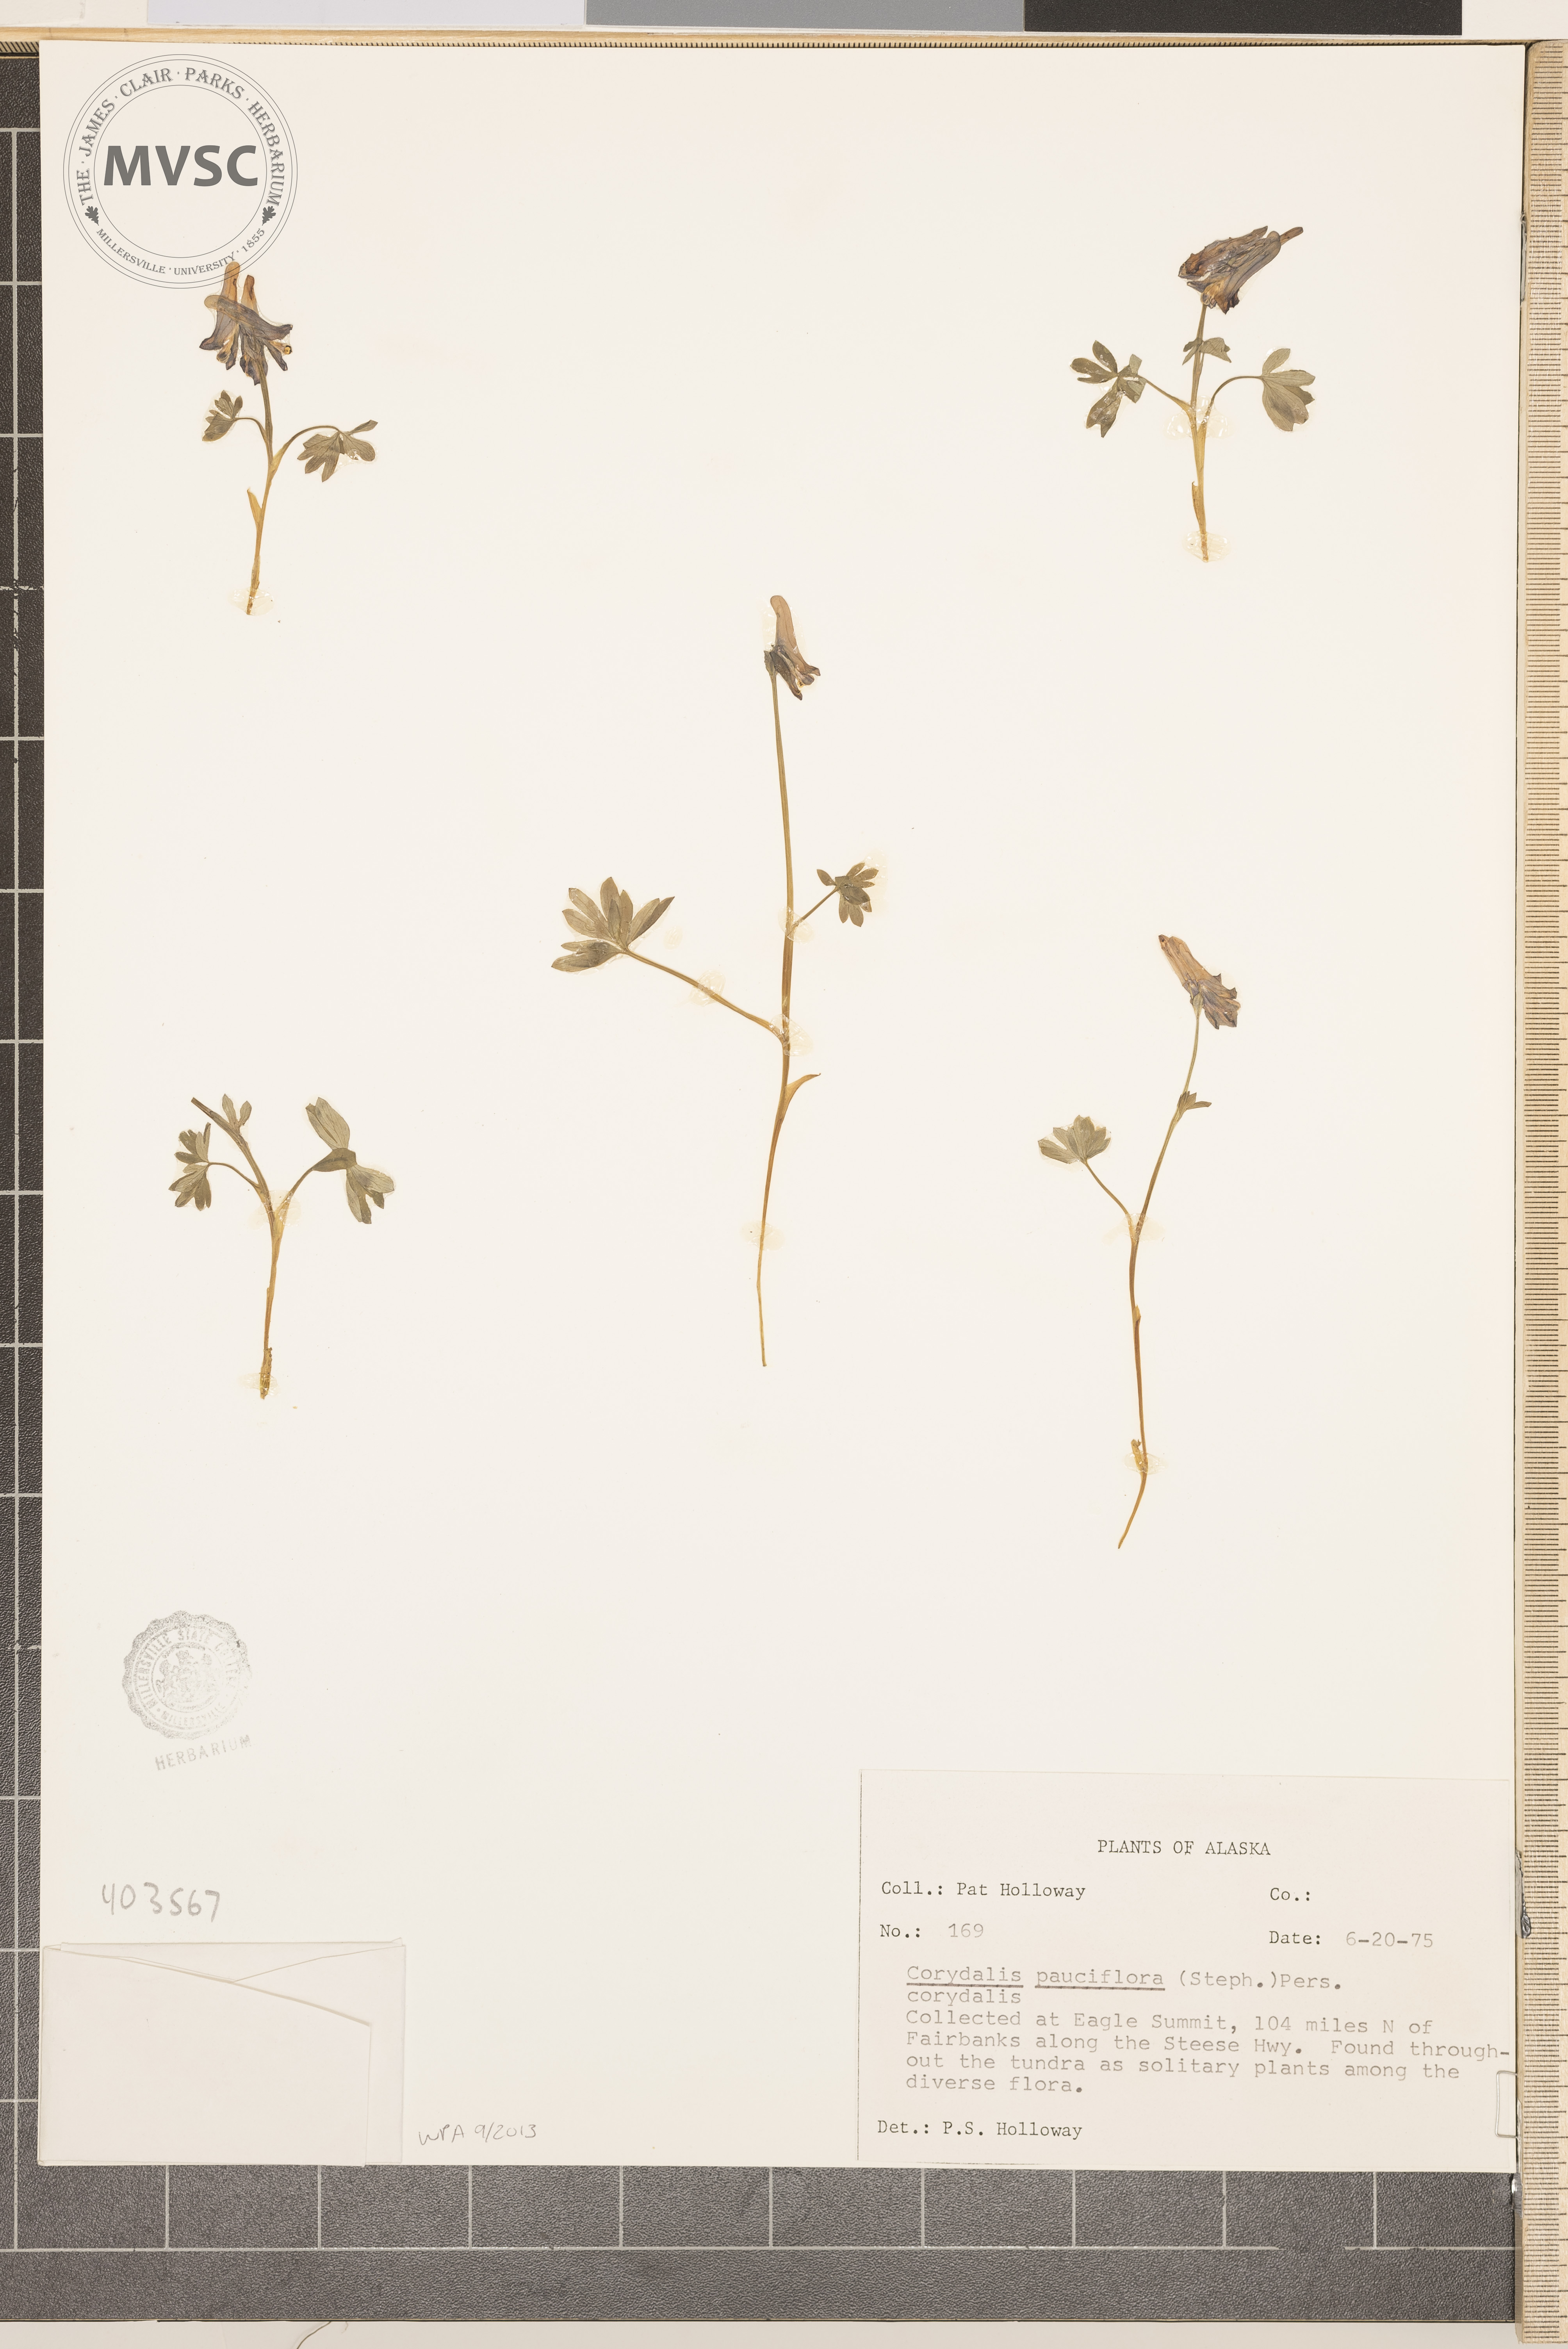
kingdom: Plantae
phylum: Tracheophyta
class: Magnoliopsida
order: Ranunculales
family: Papaveraceae
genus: Corydalis
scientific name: Corydalis pauciflora
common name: Blue corydalis
